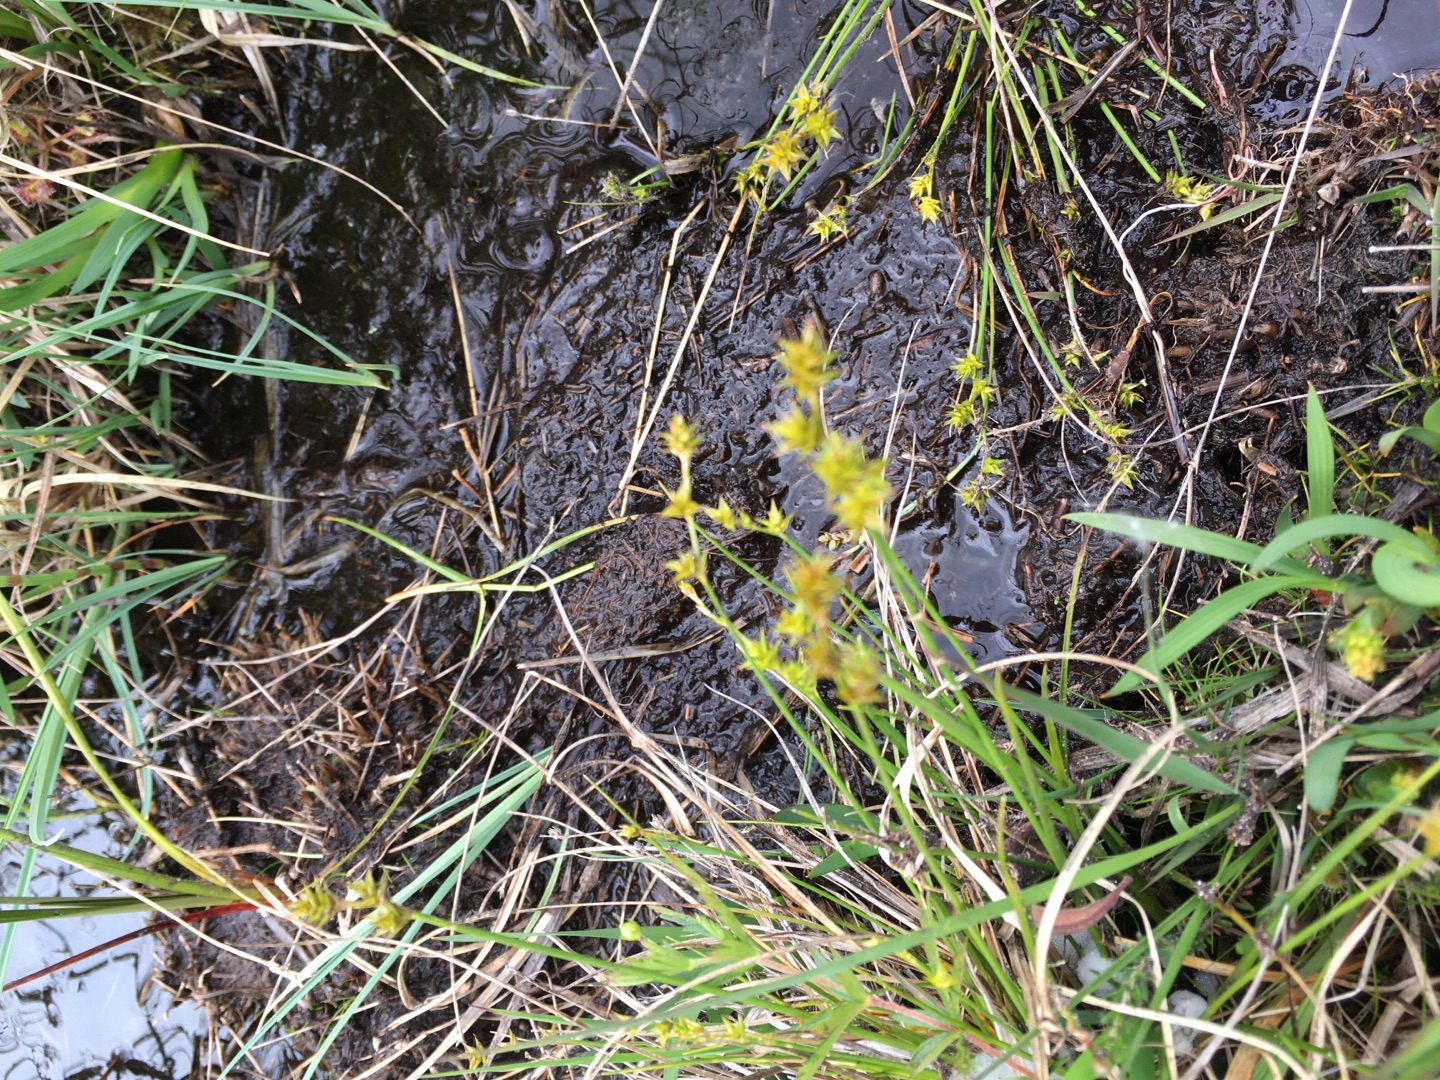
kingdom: Plantae
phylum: Tracheophyta
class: Liliopsida
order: Poales
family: Cyperaceae
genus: Carex
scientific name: Carex echinata
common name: Stjerne-star
